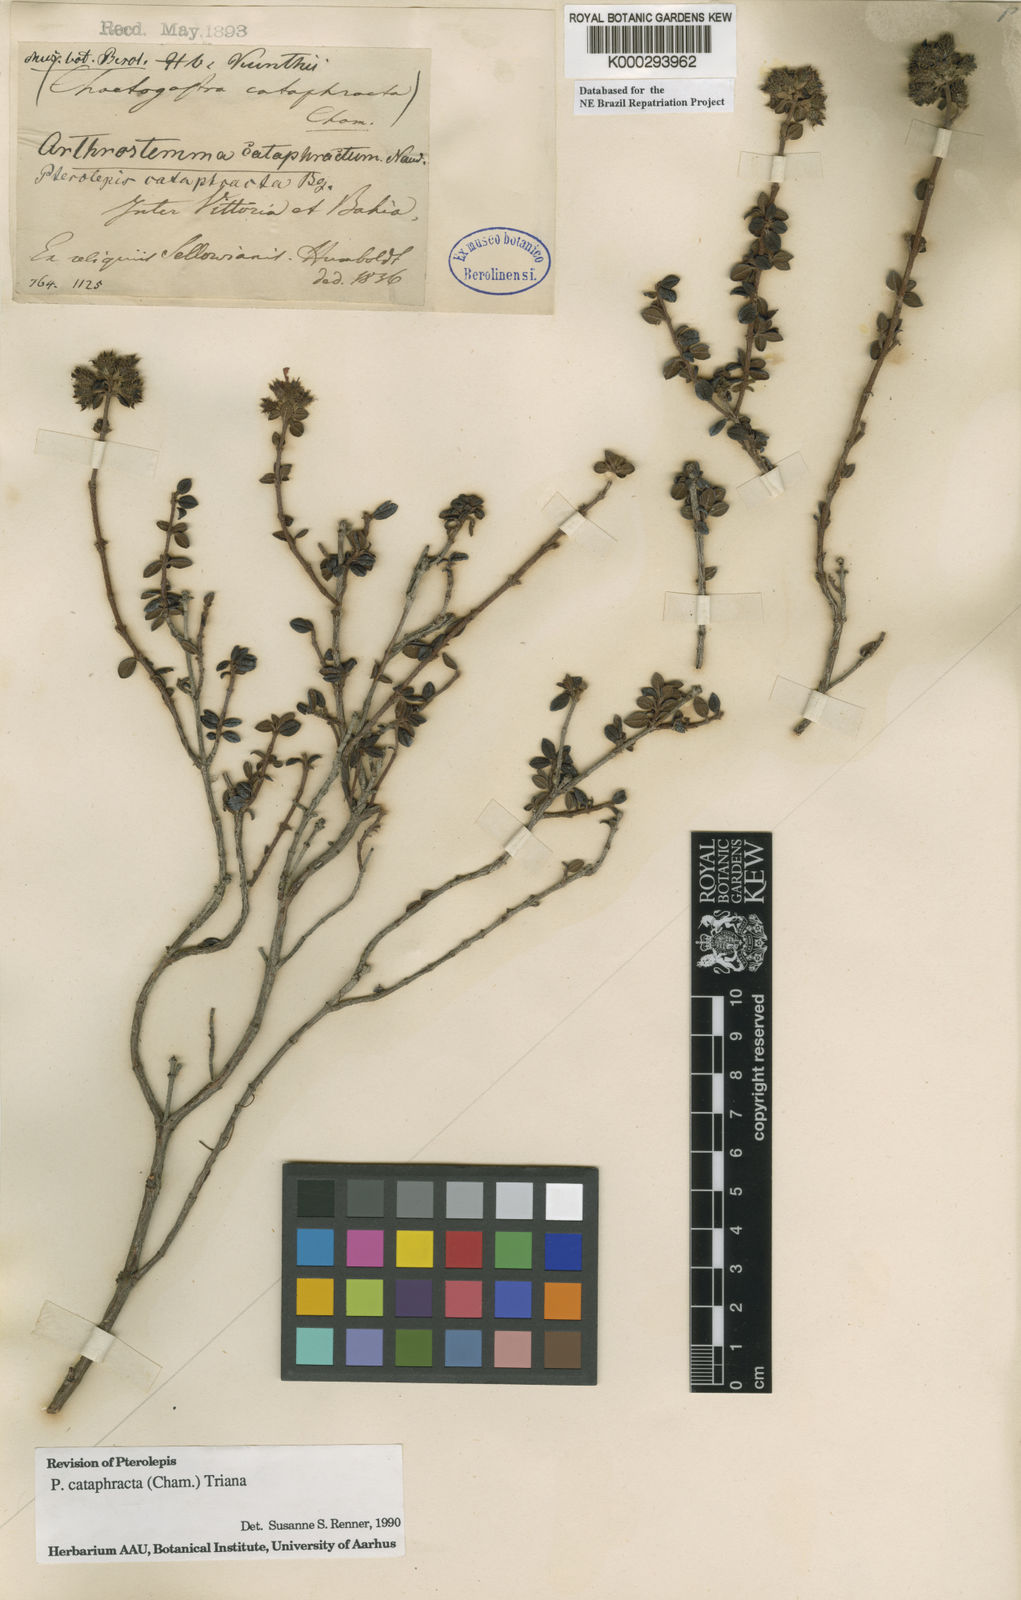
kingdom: Plantae
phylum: Tracheophyta
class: Magnoliopsida
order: Myrtales
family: Melastomataceae
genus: Pterolepis
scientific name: Pterolepis cataphracta
